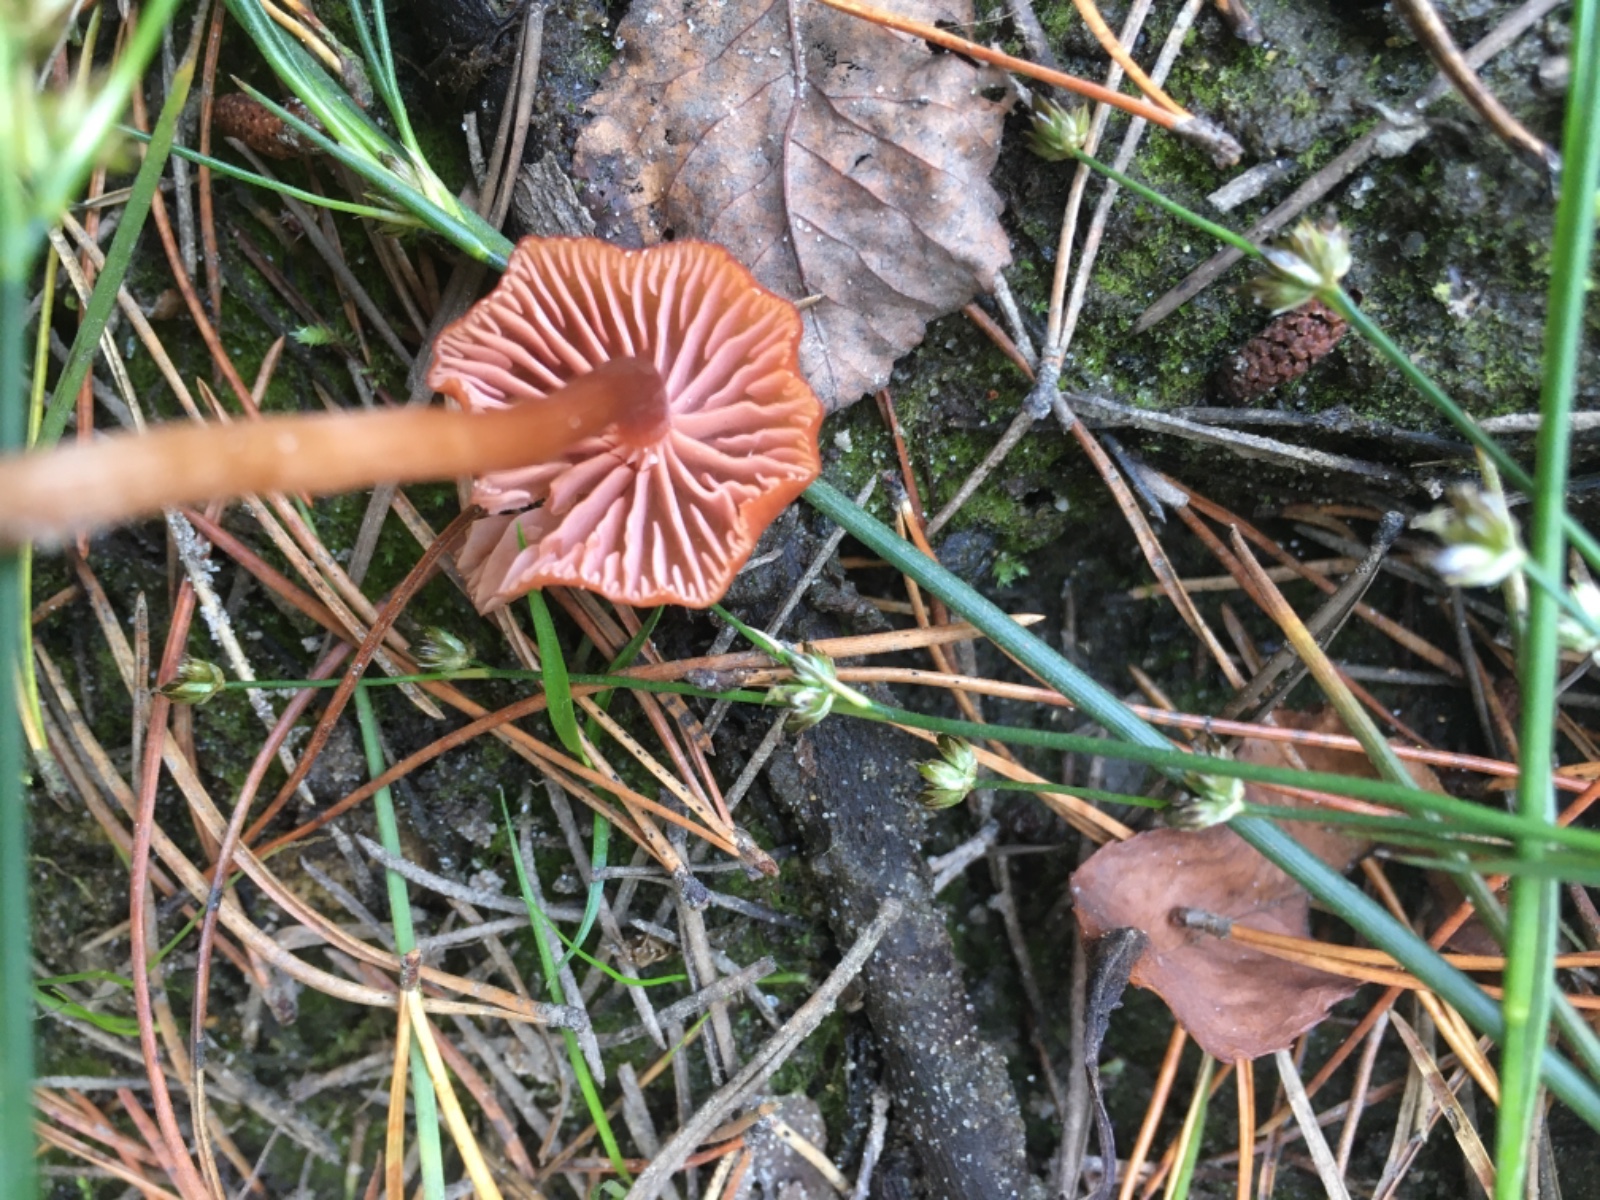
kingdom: Fungi
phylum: Basidiomycota
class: Agaricomycetes
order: Agaricales
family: Hydnangiaceae
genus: Laccaria
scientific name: Laccaria laccata
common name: rød ametysthat
